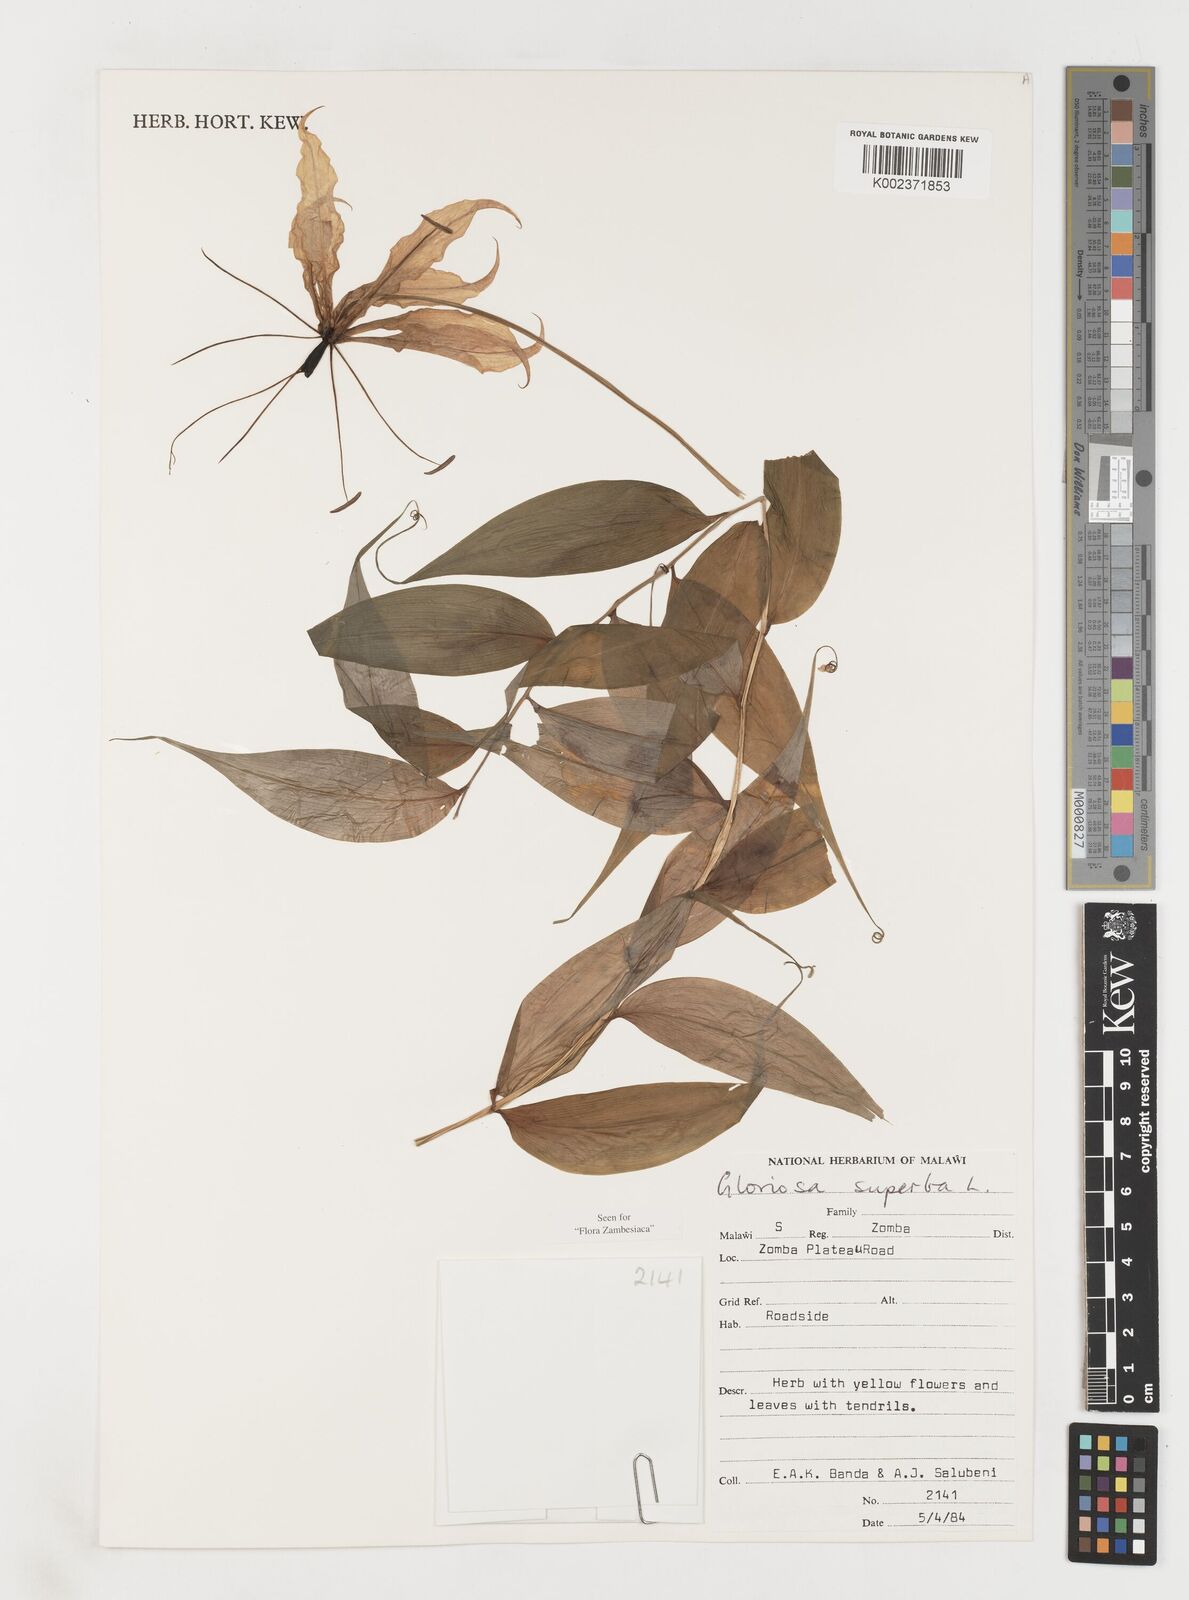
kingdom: Plantae
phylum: Tracheophyta
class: Liliopsida
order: Liliales
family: Colchicaceae
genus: Gloriosa
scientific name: Gloriosa simplex
